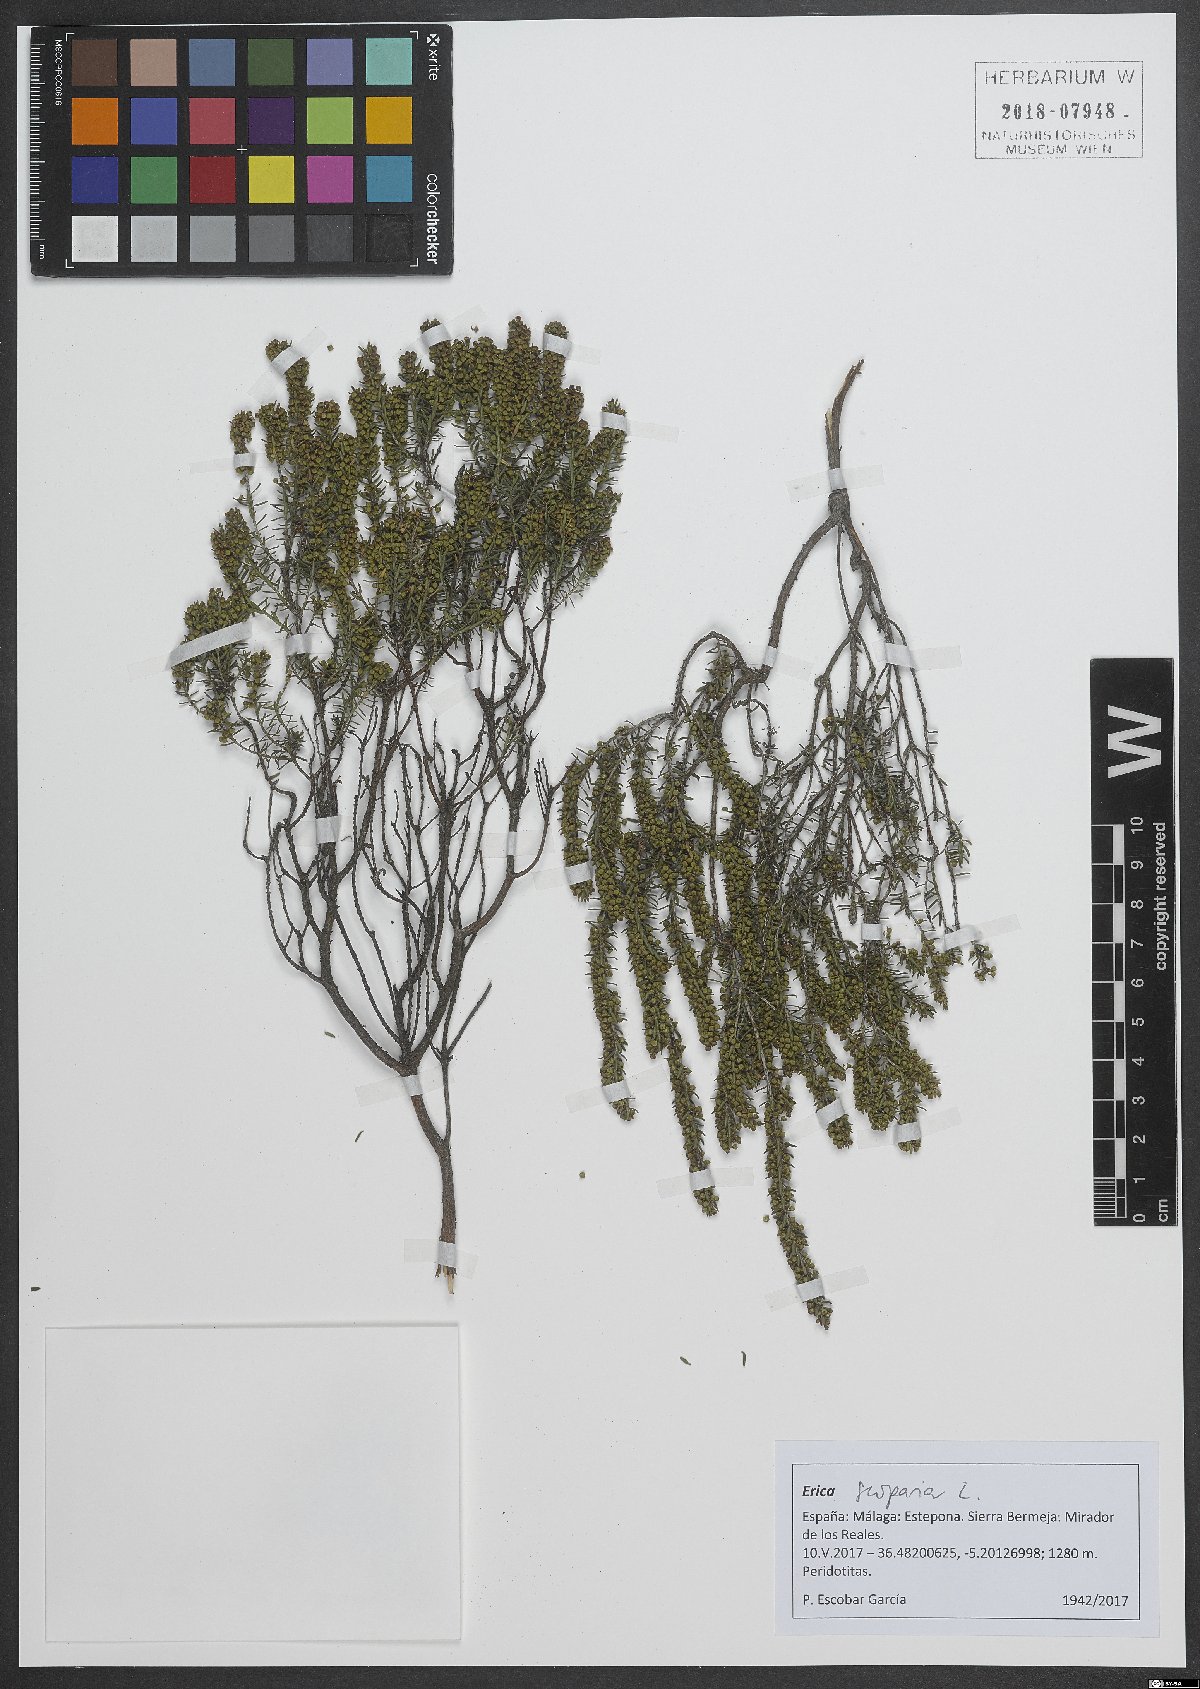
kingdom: Plantae
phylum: Tracheophyta
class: Magnoliopsida
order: Ericales
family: Ericaceae
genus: Erica
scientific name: Erica scoparia
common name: Green heather
